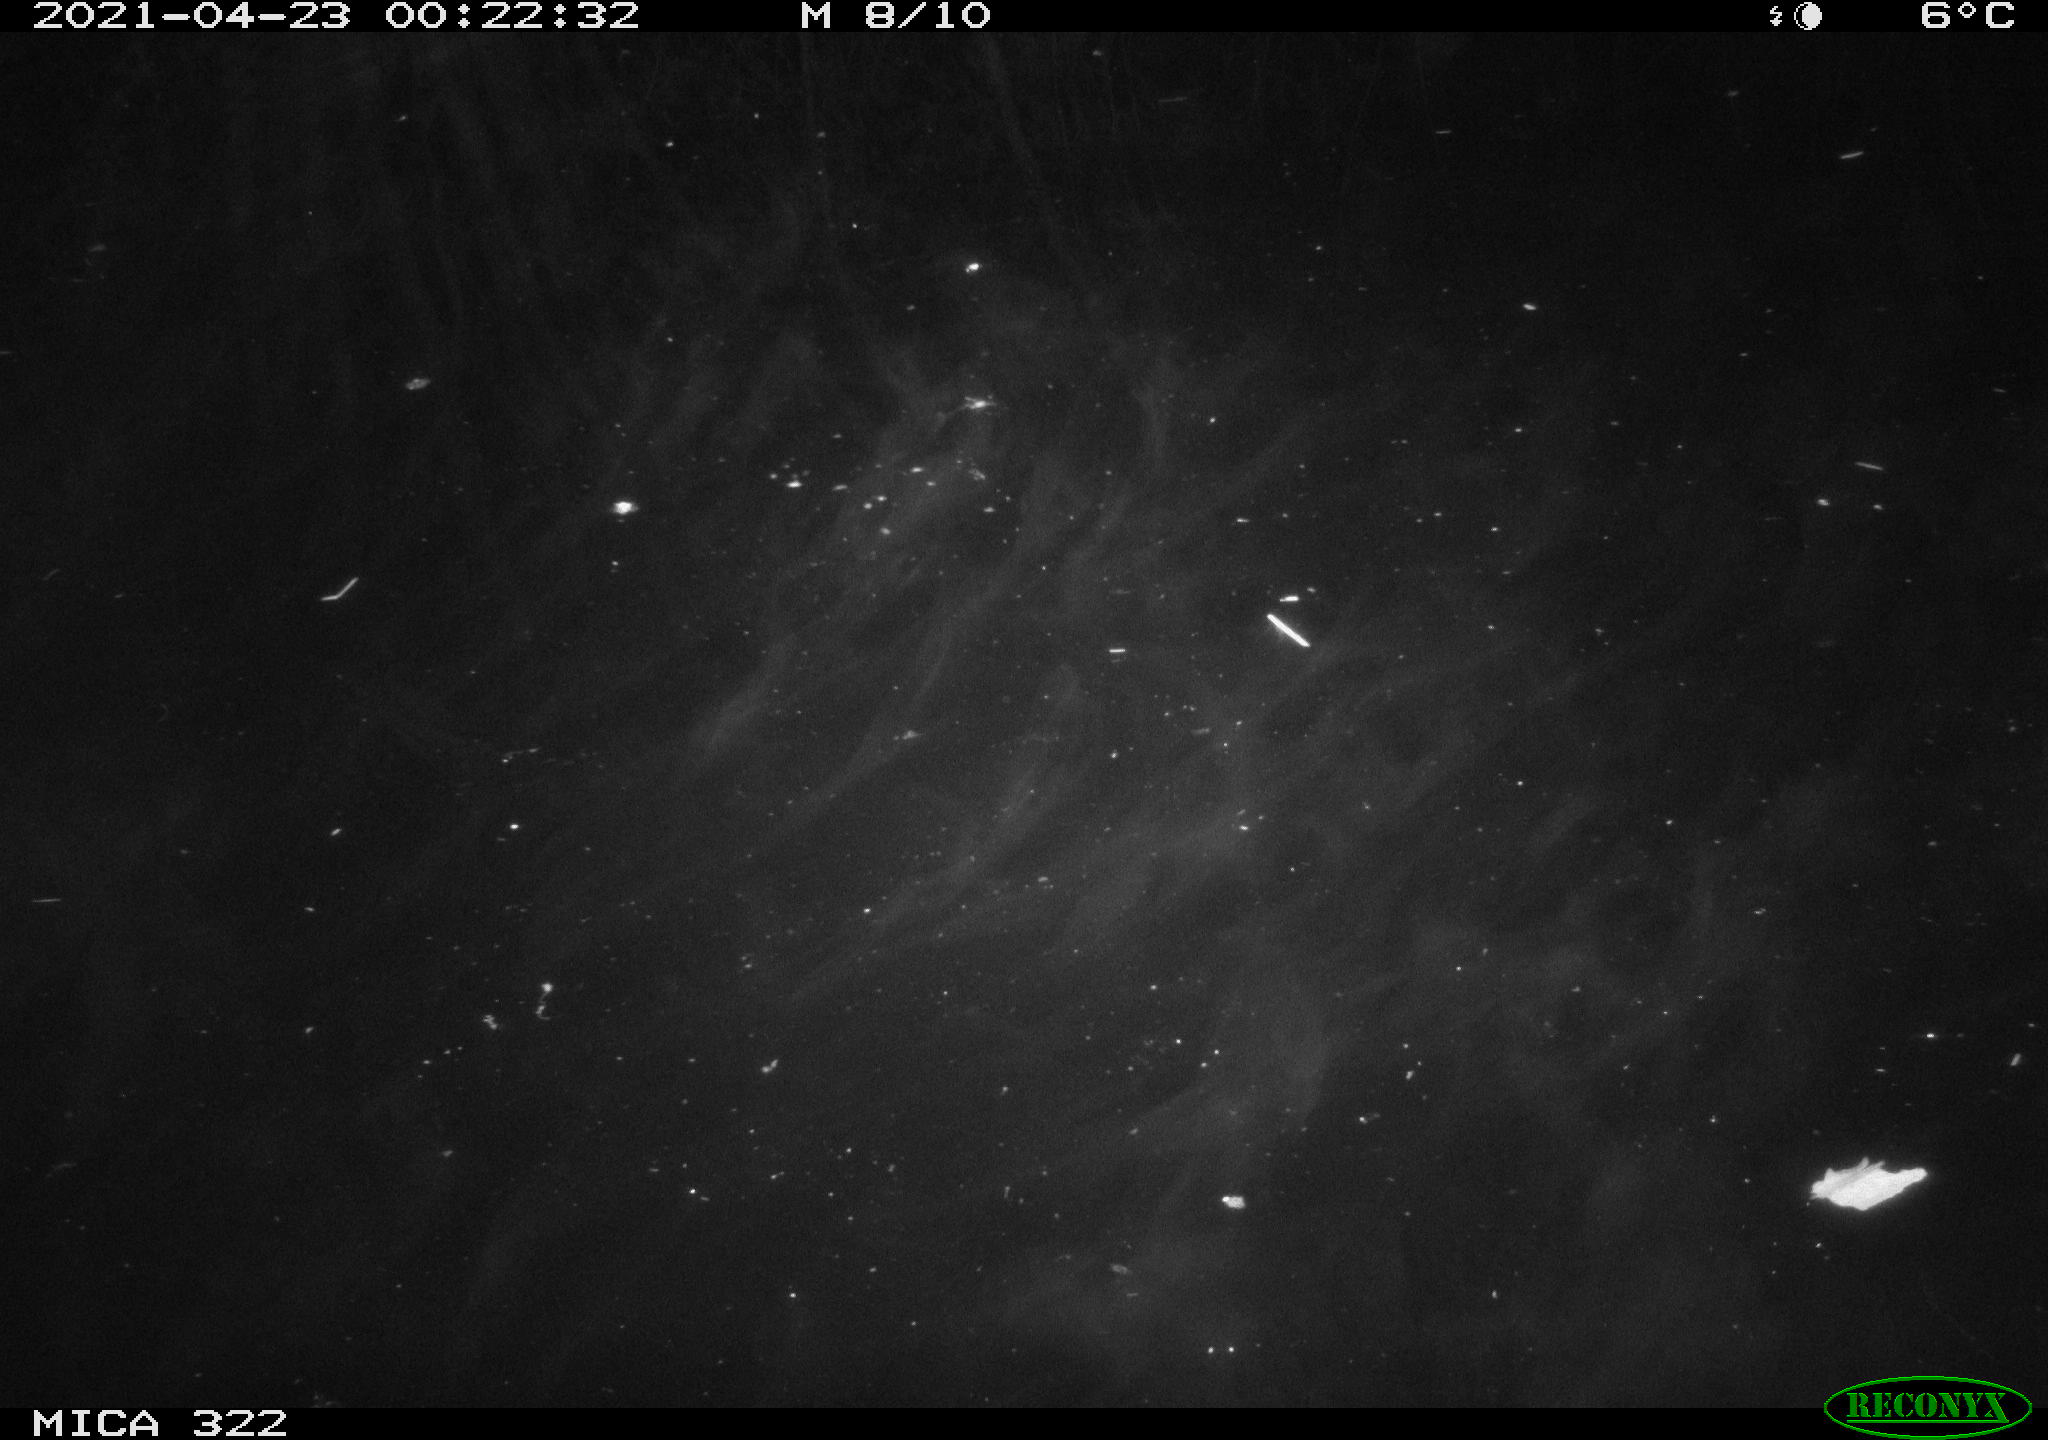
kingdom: Animalia
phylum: Chordata
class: Aves
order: Anseriformes
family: Anatidae
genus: Anas
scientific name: Anas platyrhynchos
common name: Mallard
